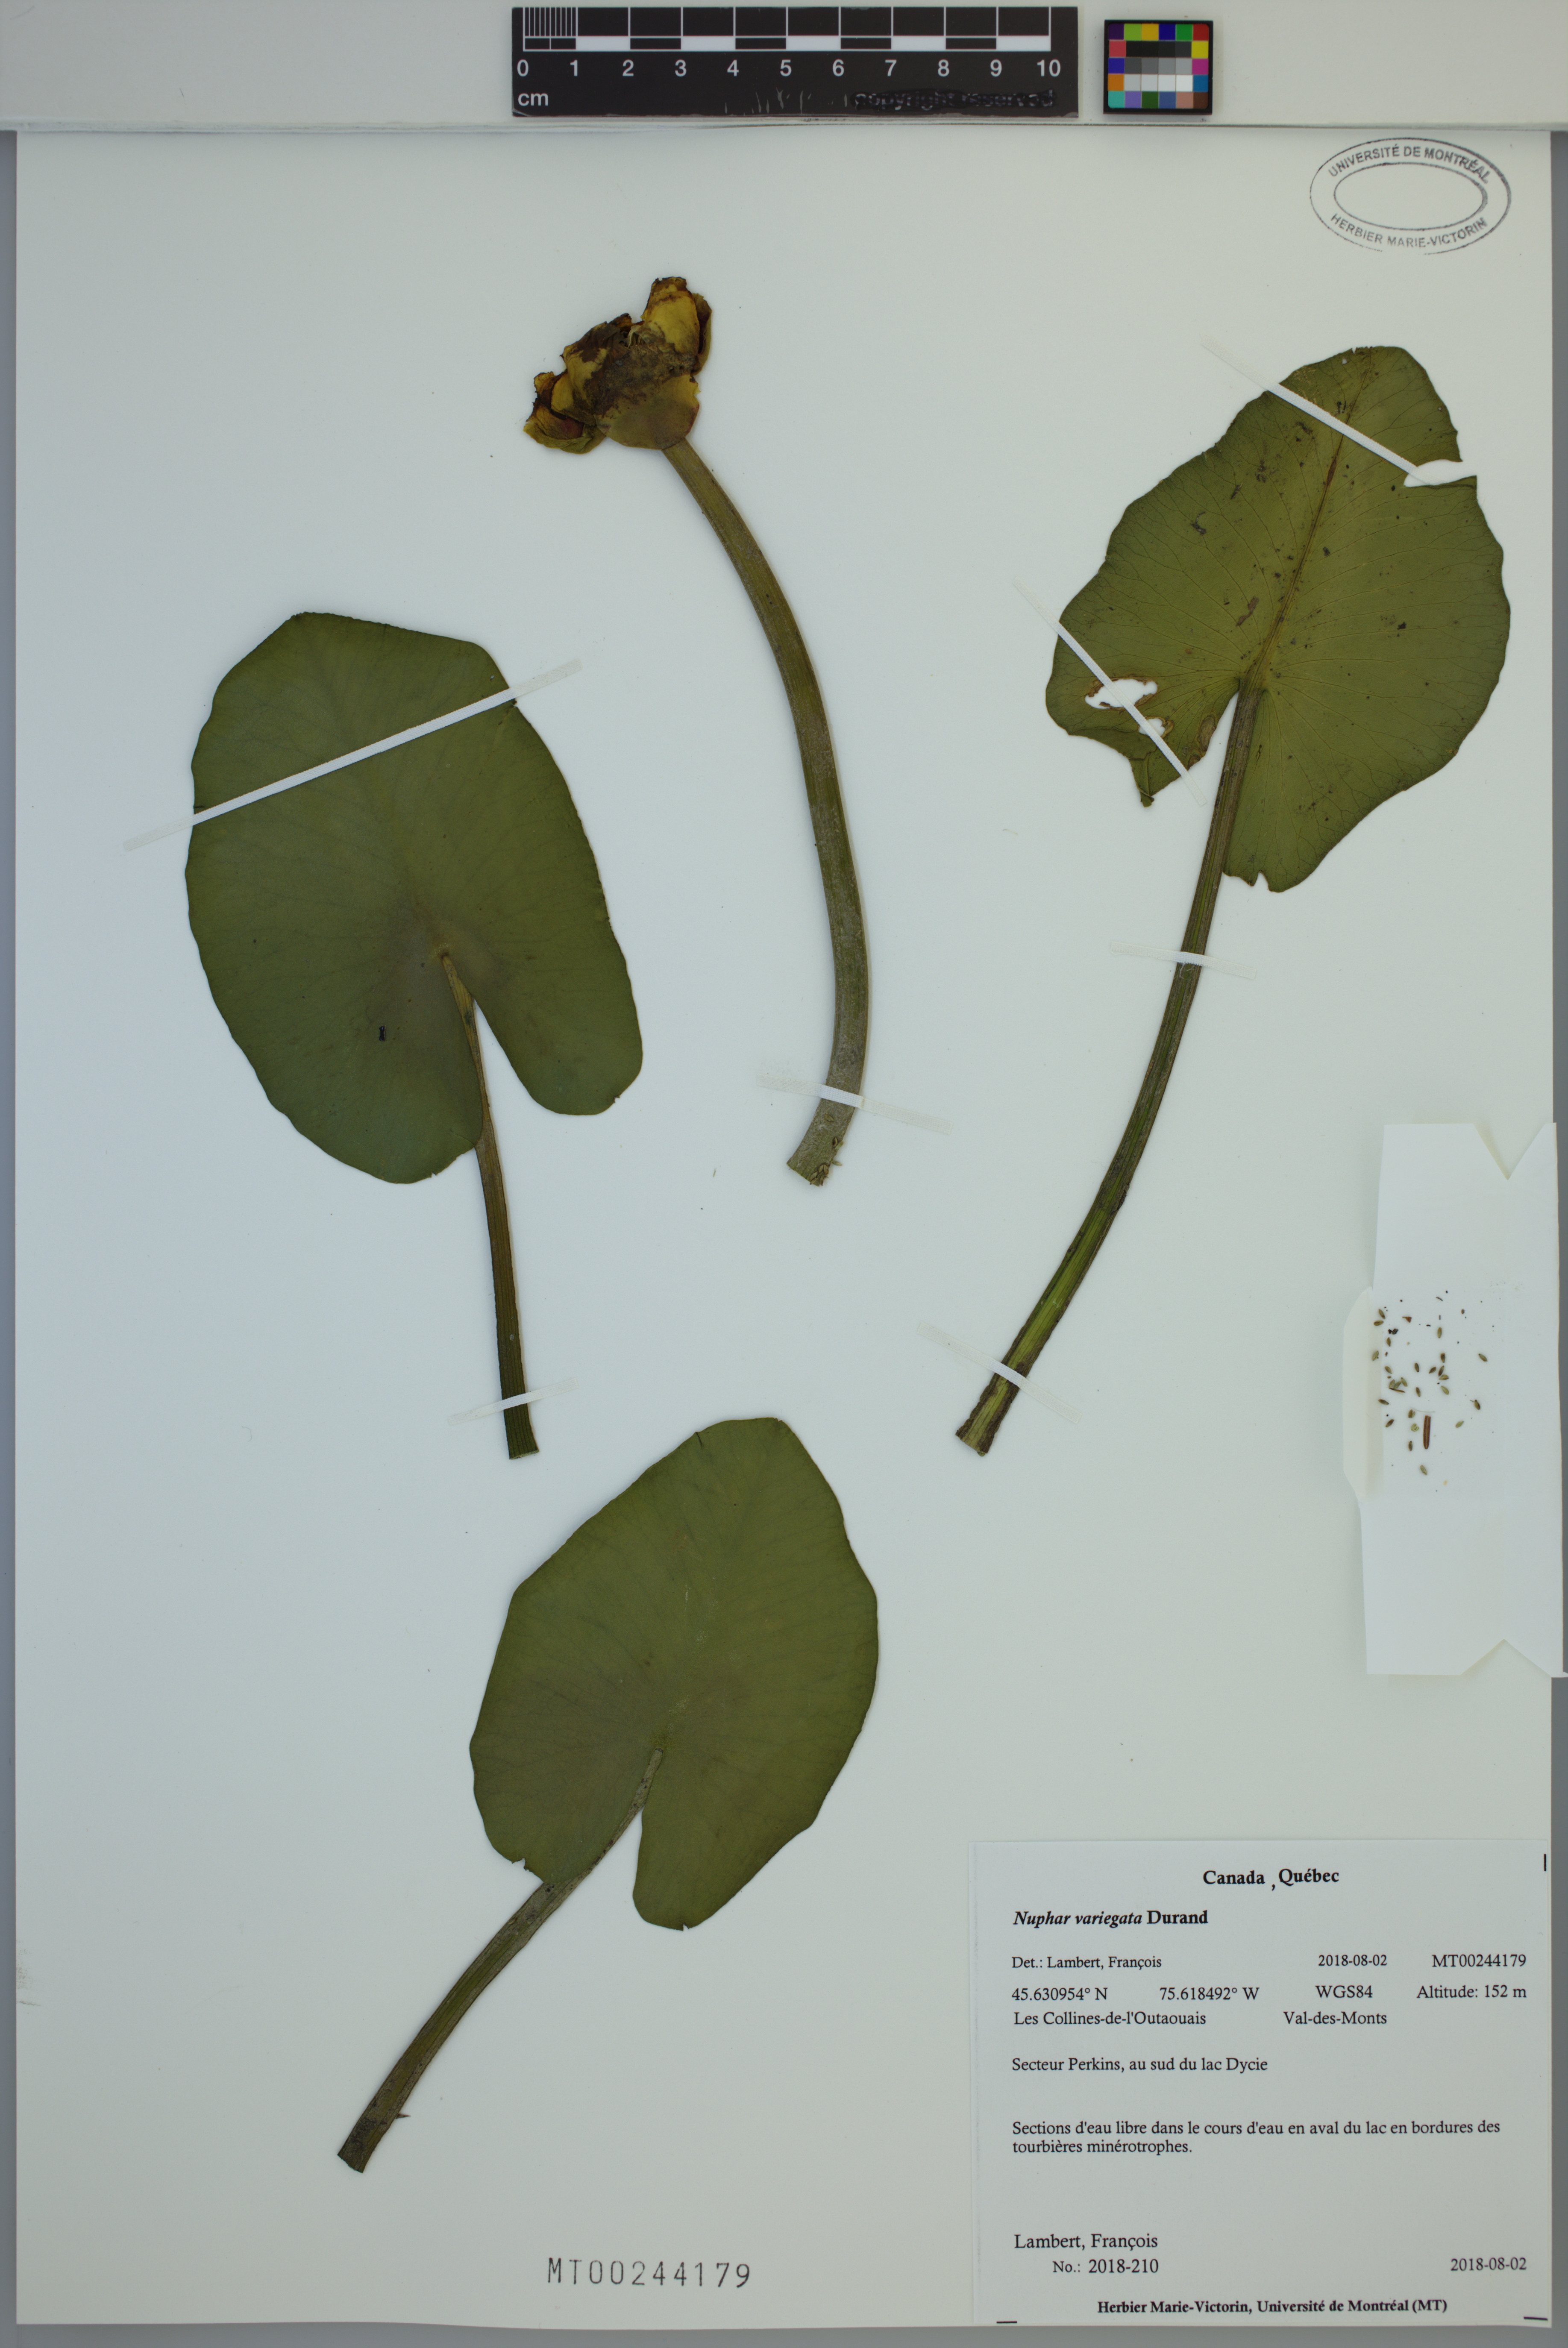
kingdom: Plantae
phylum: Tracheophyta
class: Magnoliopsida
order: Nymphaeales
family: Nymphaeaceae
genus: Nuphar
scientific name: Nuphar variegata
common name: Beaver-root
